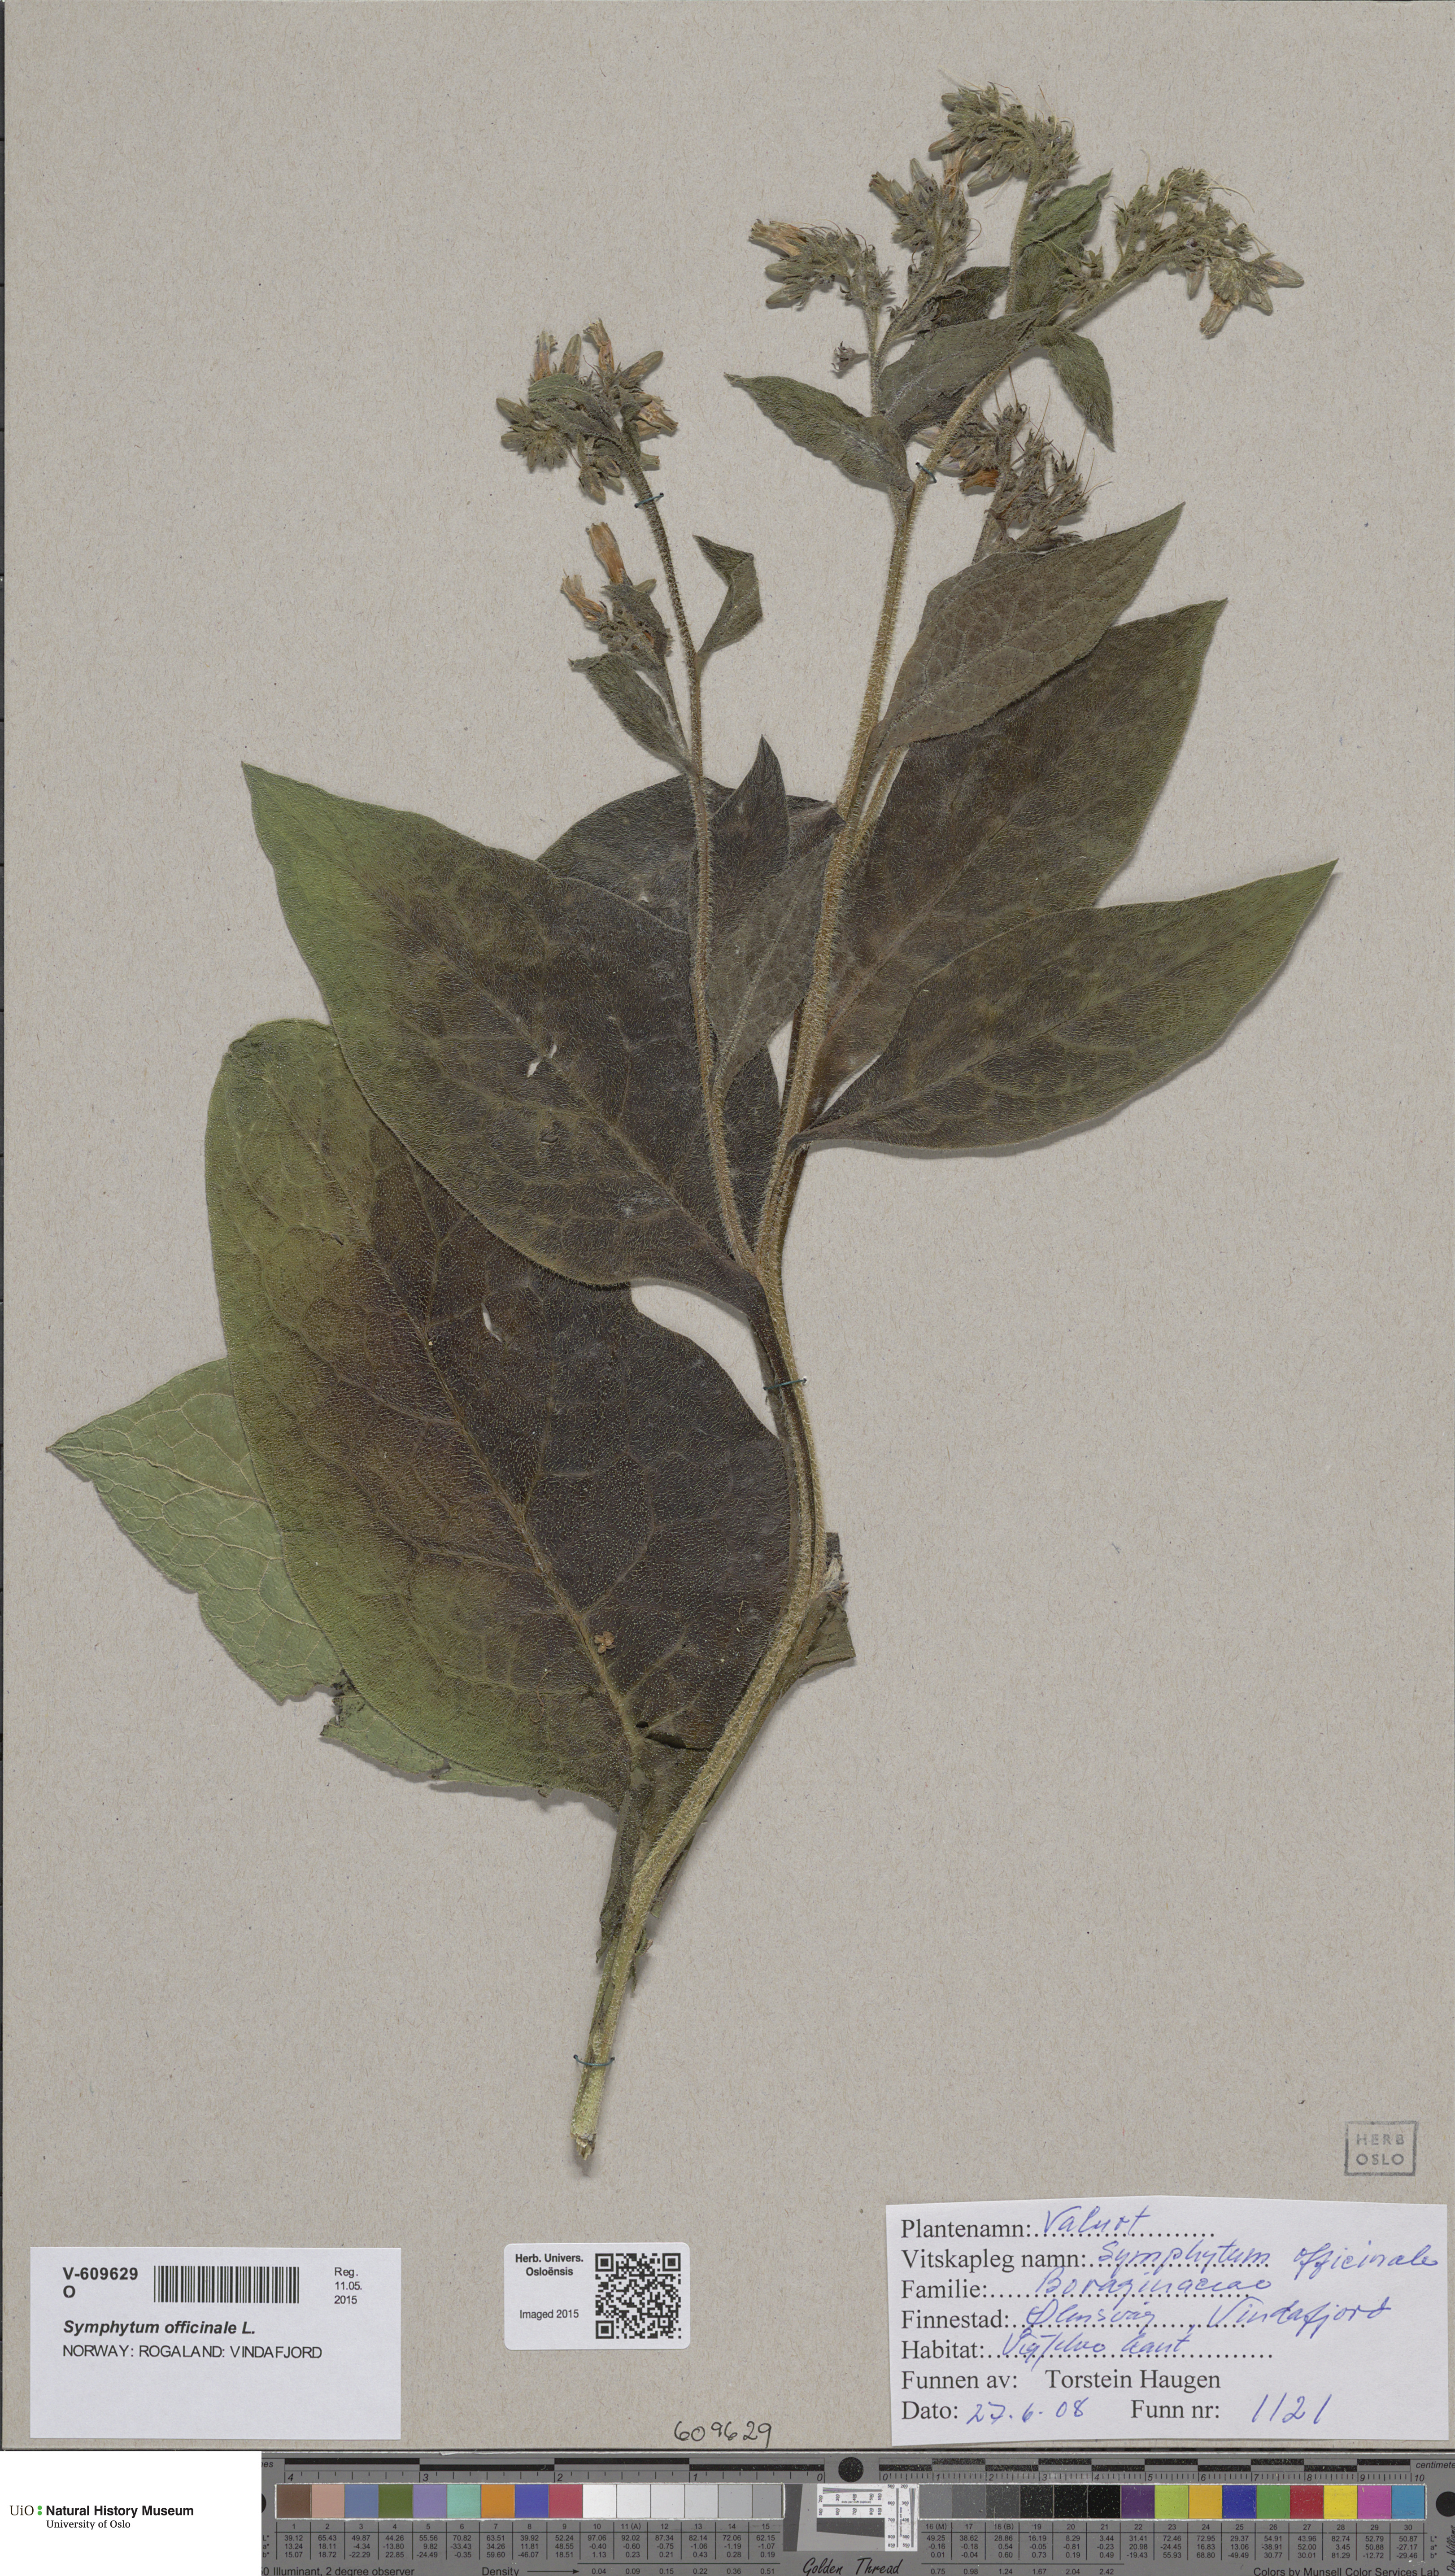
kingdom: Plantae
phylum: Tracheophyta
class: Magnoliopsida
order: Boraginales
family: Boraginaceae
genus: Symphytum
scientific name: Symphytum officinale
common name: Common comfrey
